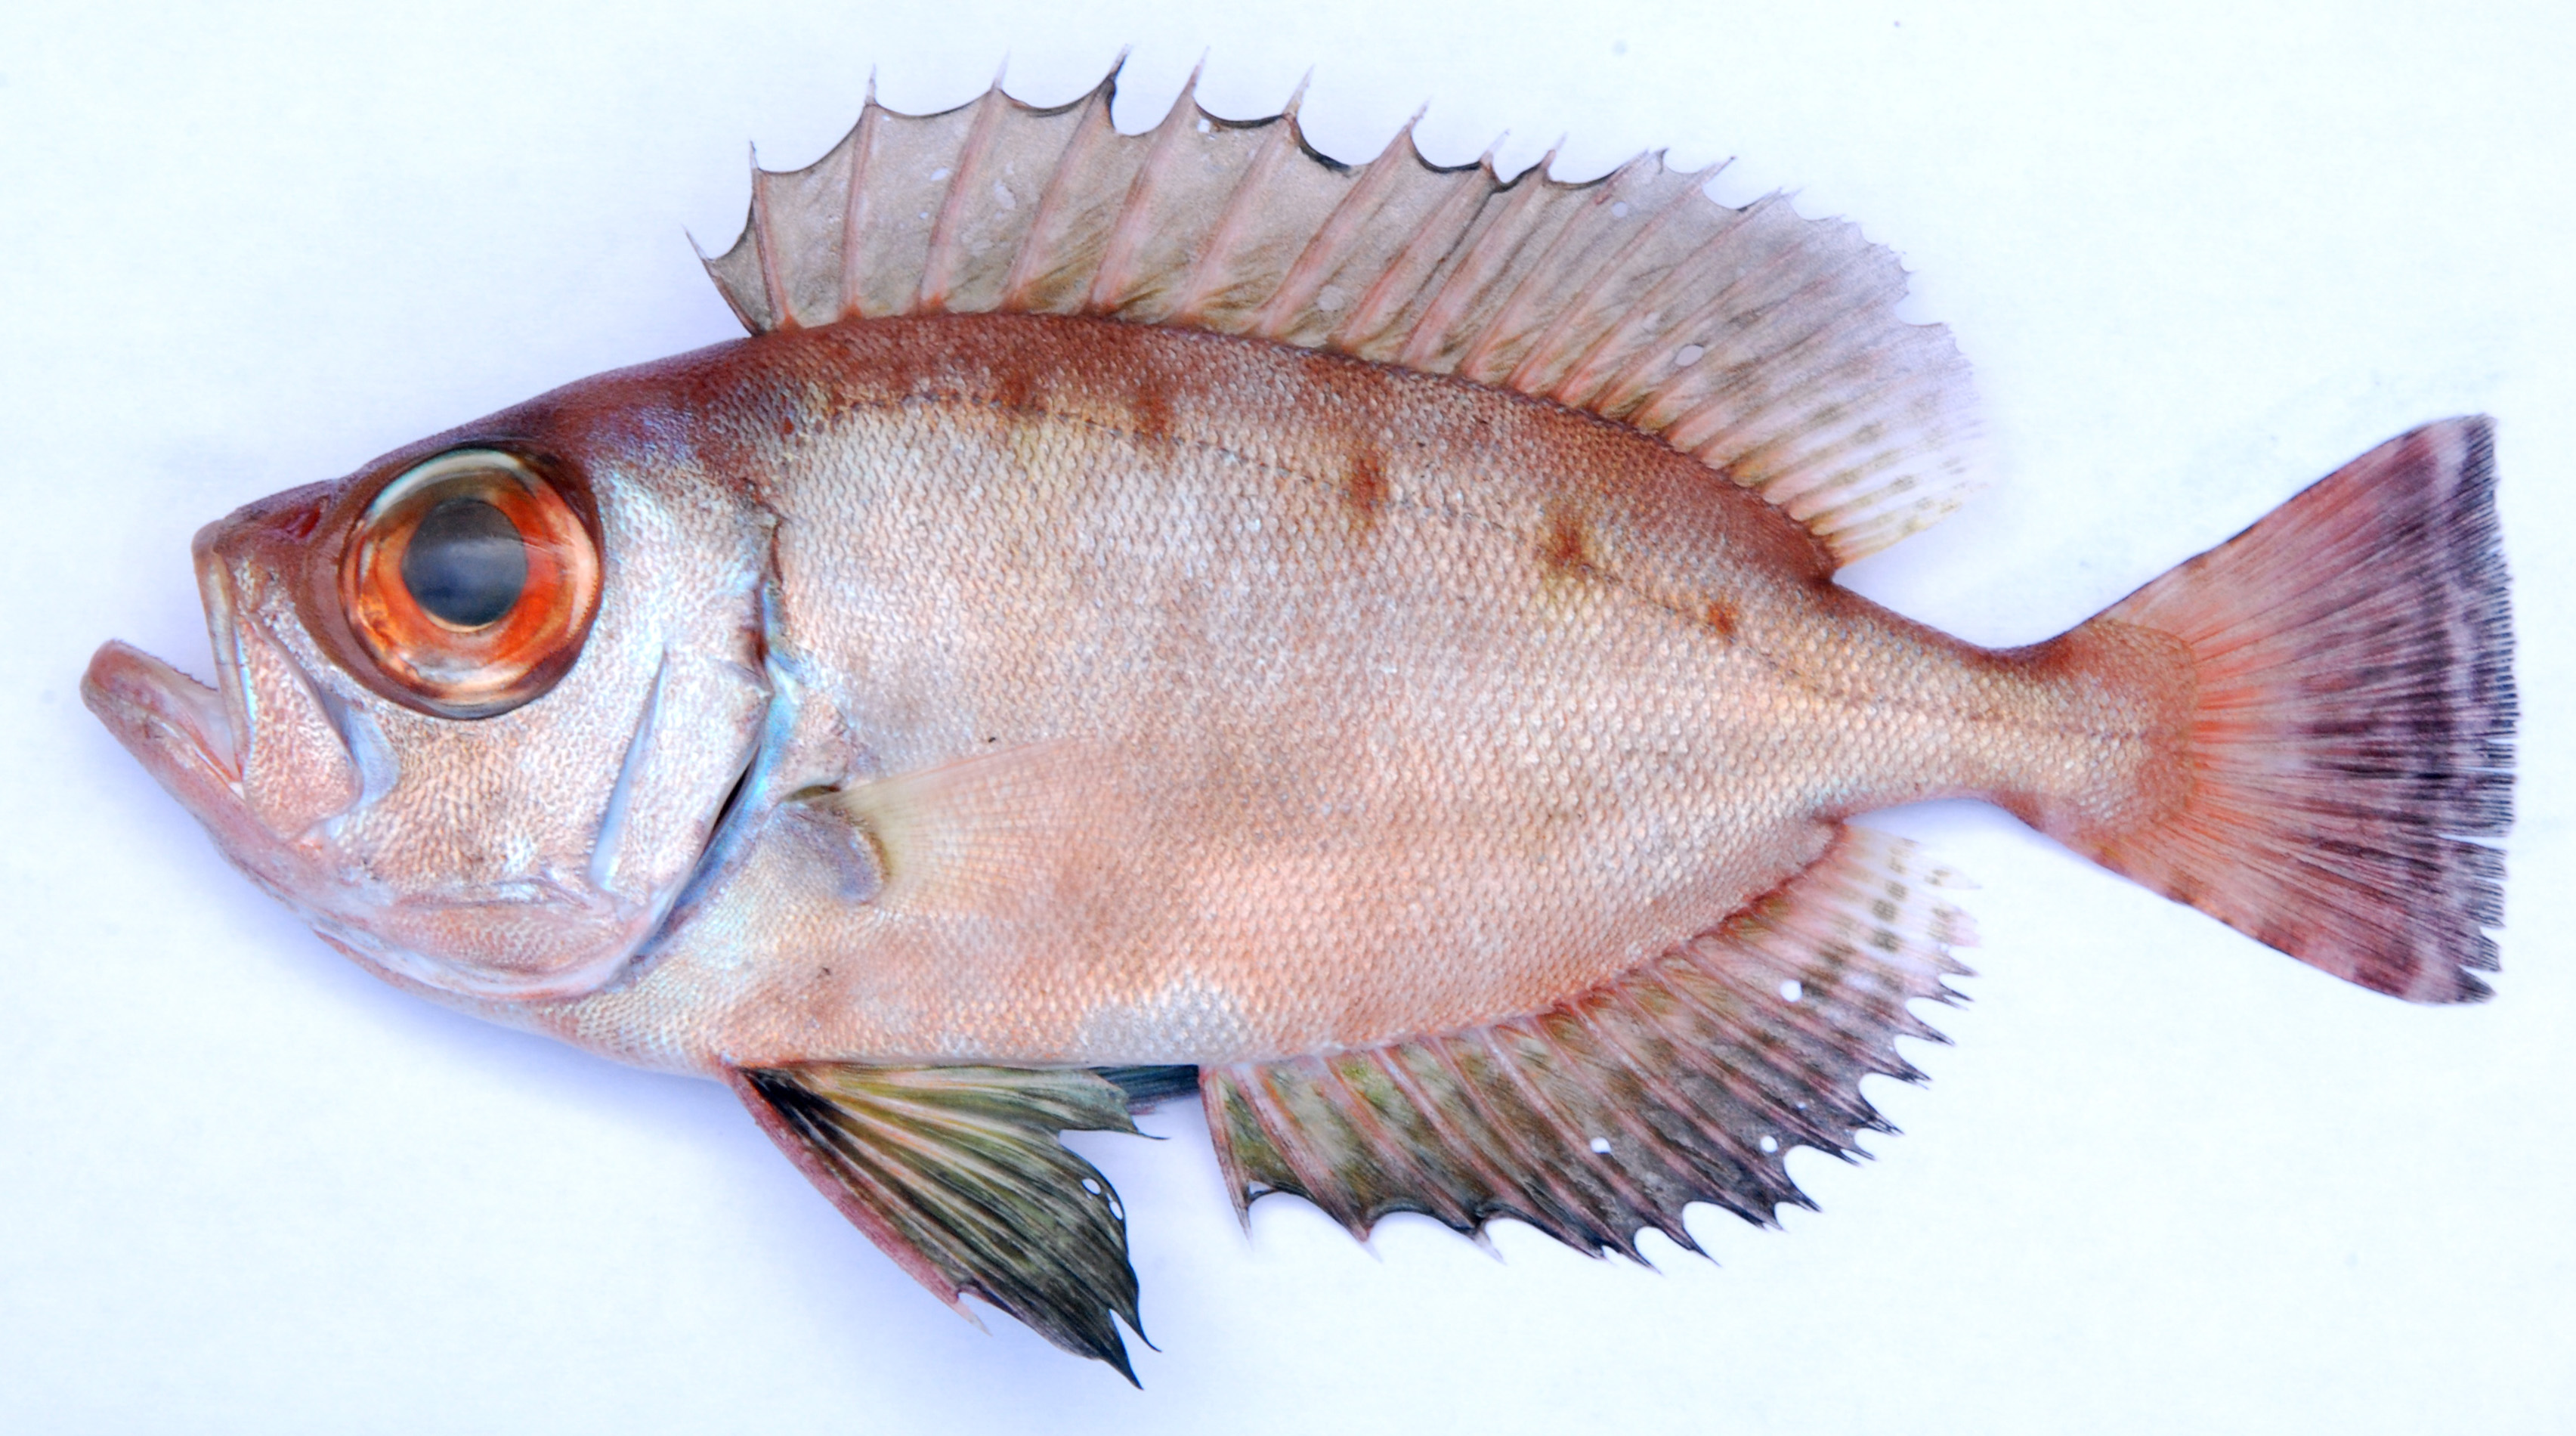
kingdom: Animalia
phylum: Chordata
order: Perciformes
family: Priacanthidae
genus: Heteropriacanthus
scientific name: Heteropriacanthus cruentatus
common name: Glasseye
